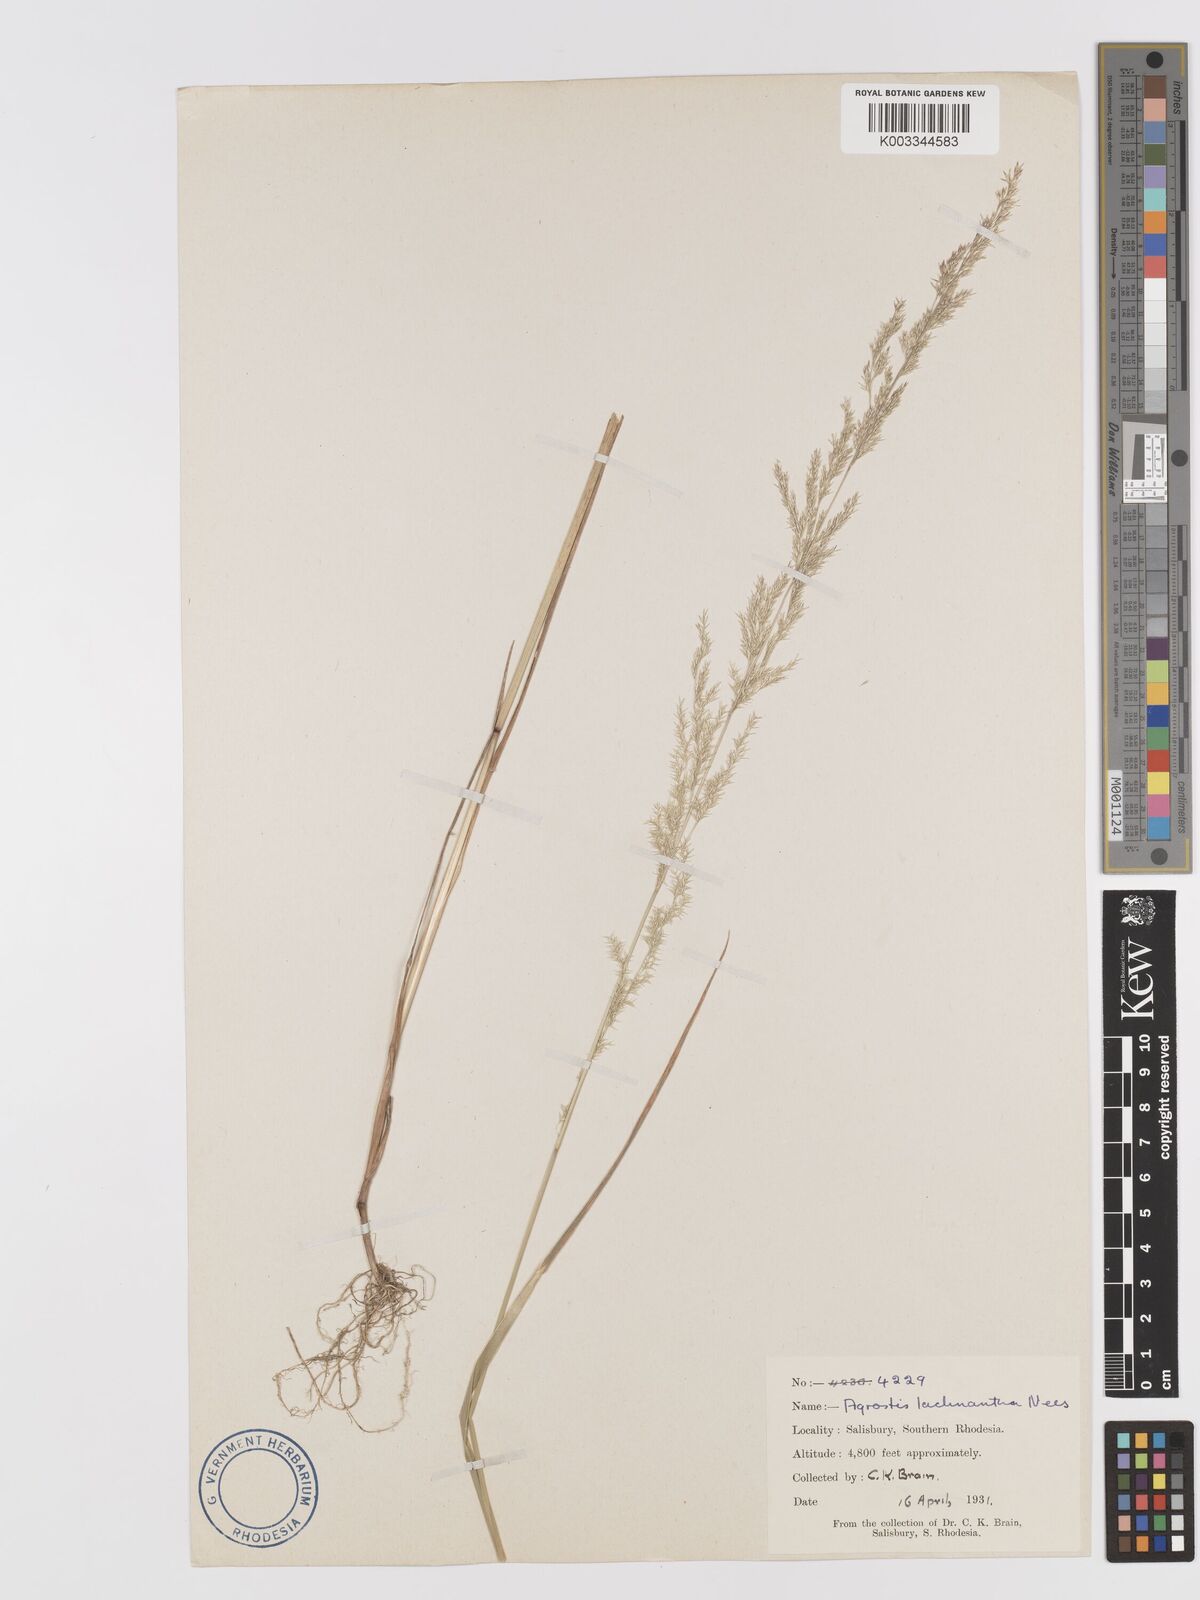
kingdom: Plantae
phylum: Tracheophyta
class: Liliopsida
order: Poales
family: Poaceae
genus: Lachnagrostis
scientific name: Lachnagrostis lachnantha
